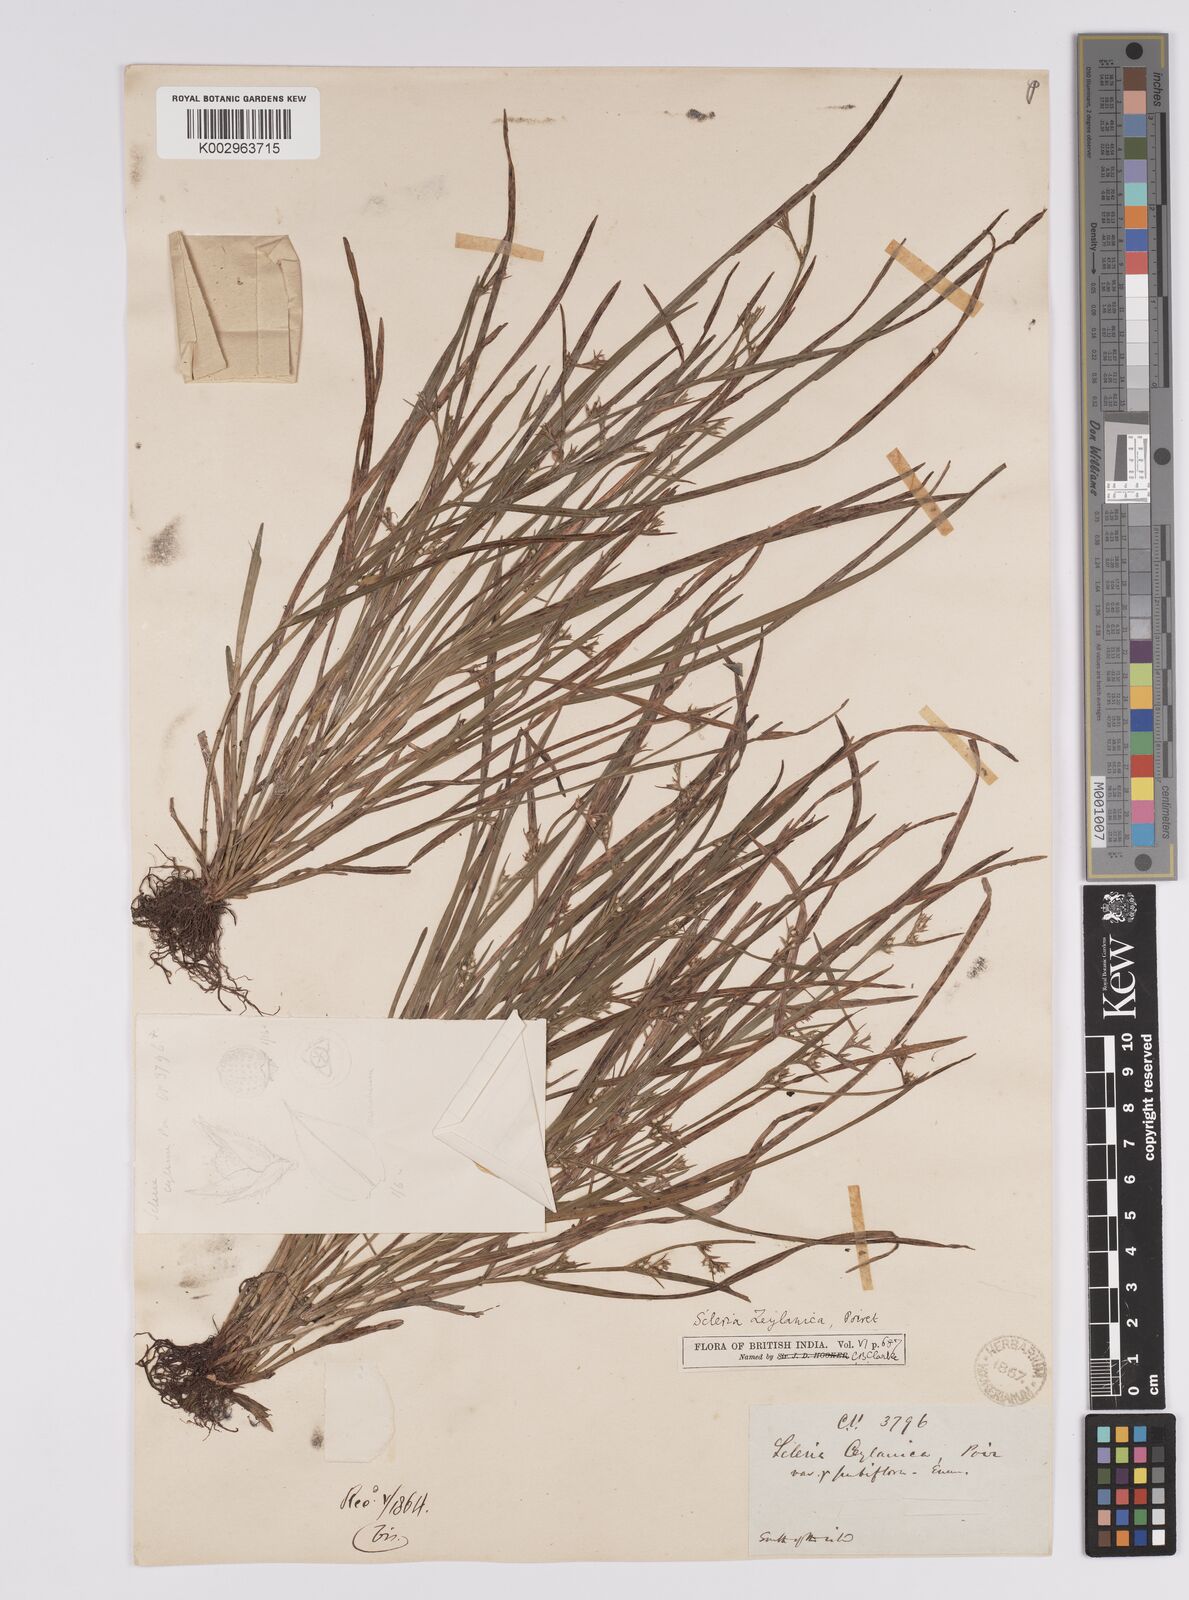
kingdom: Plantae
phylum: Tracheophyta
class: Liliopsida
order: Poales
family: Cyperaceae
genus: Scleria
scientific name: Scleria levis
